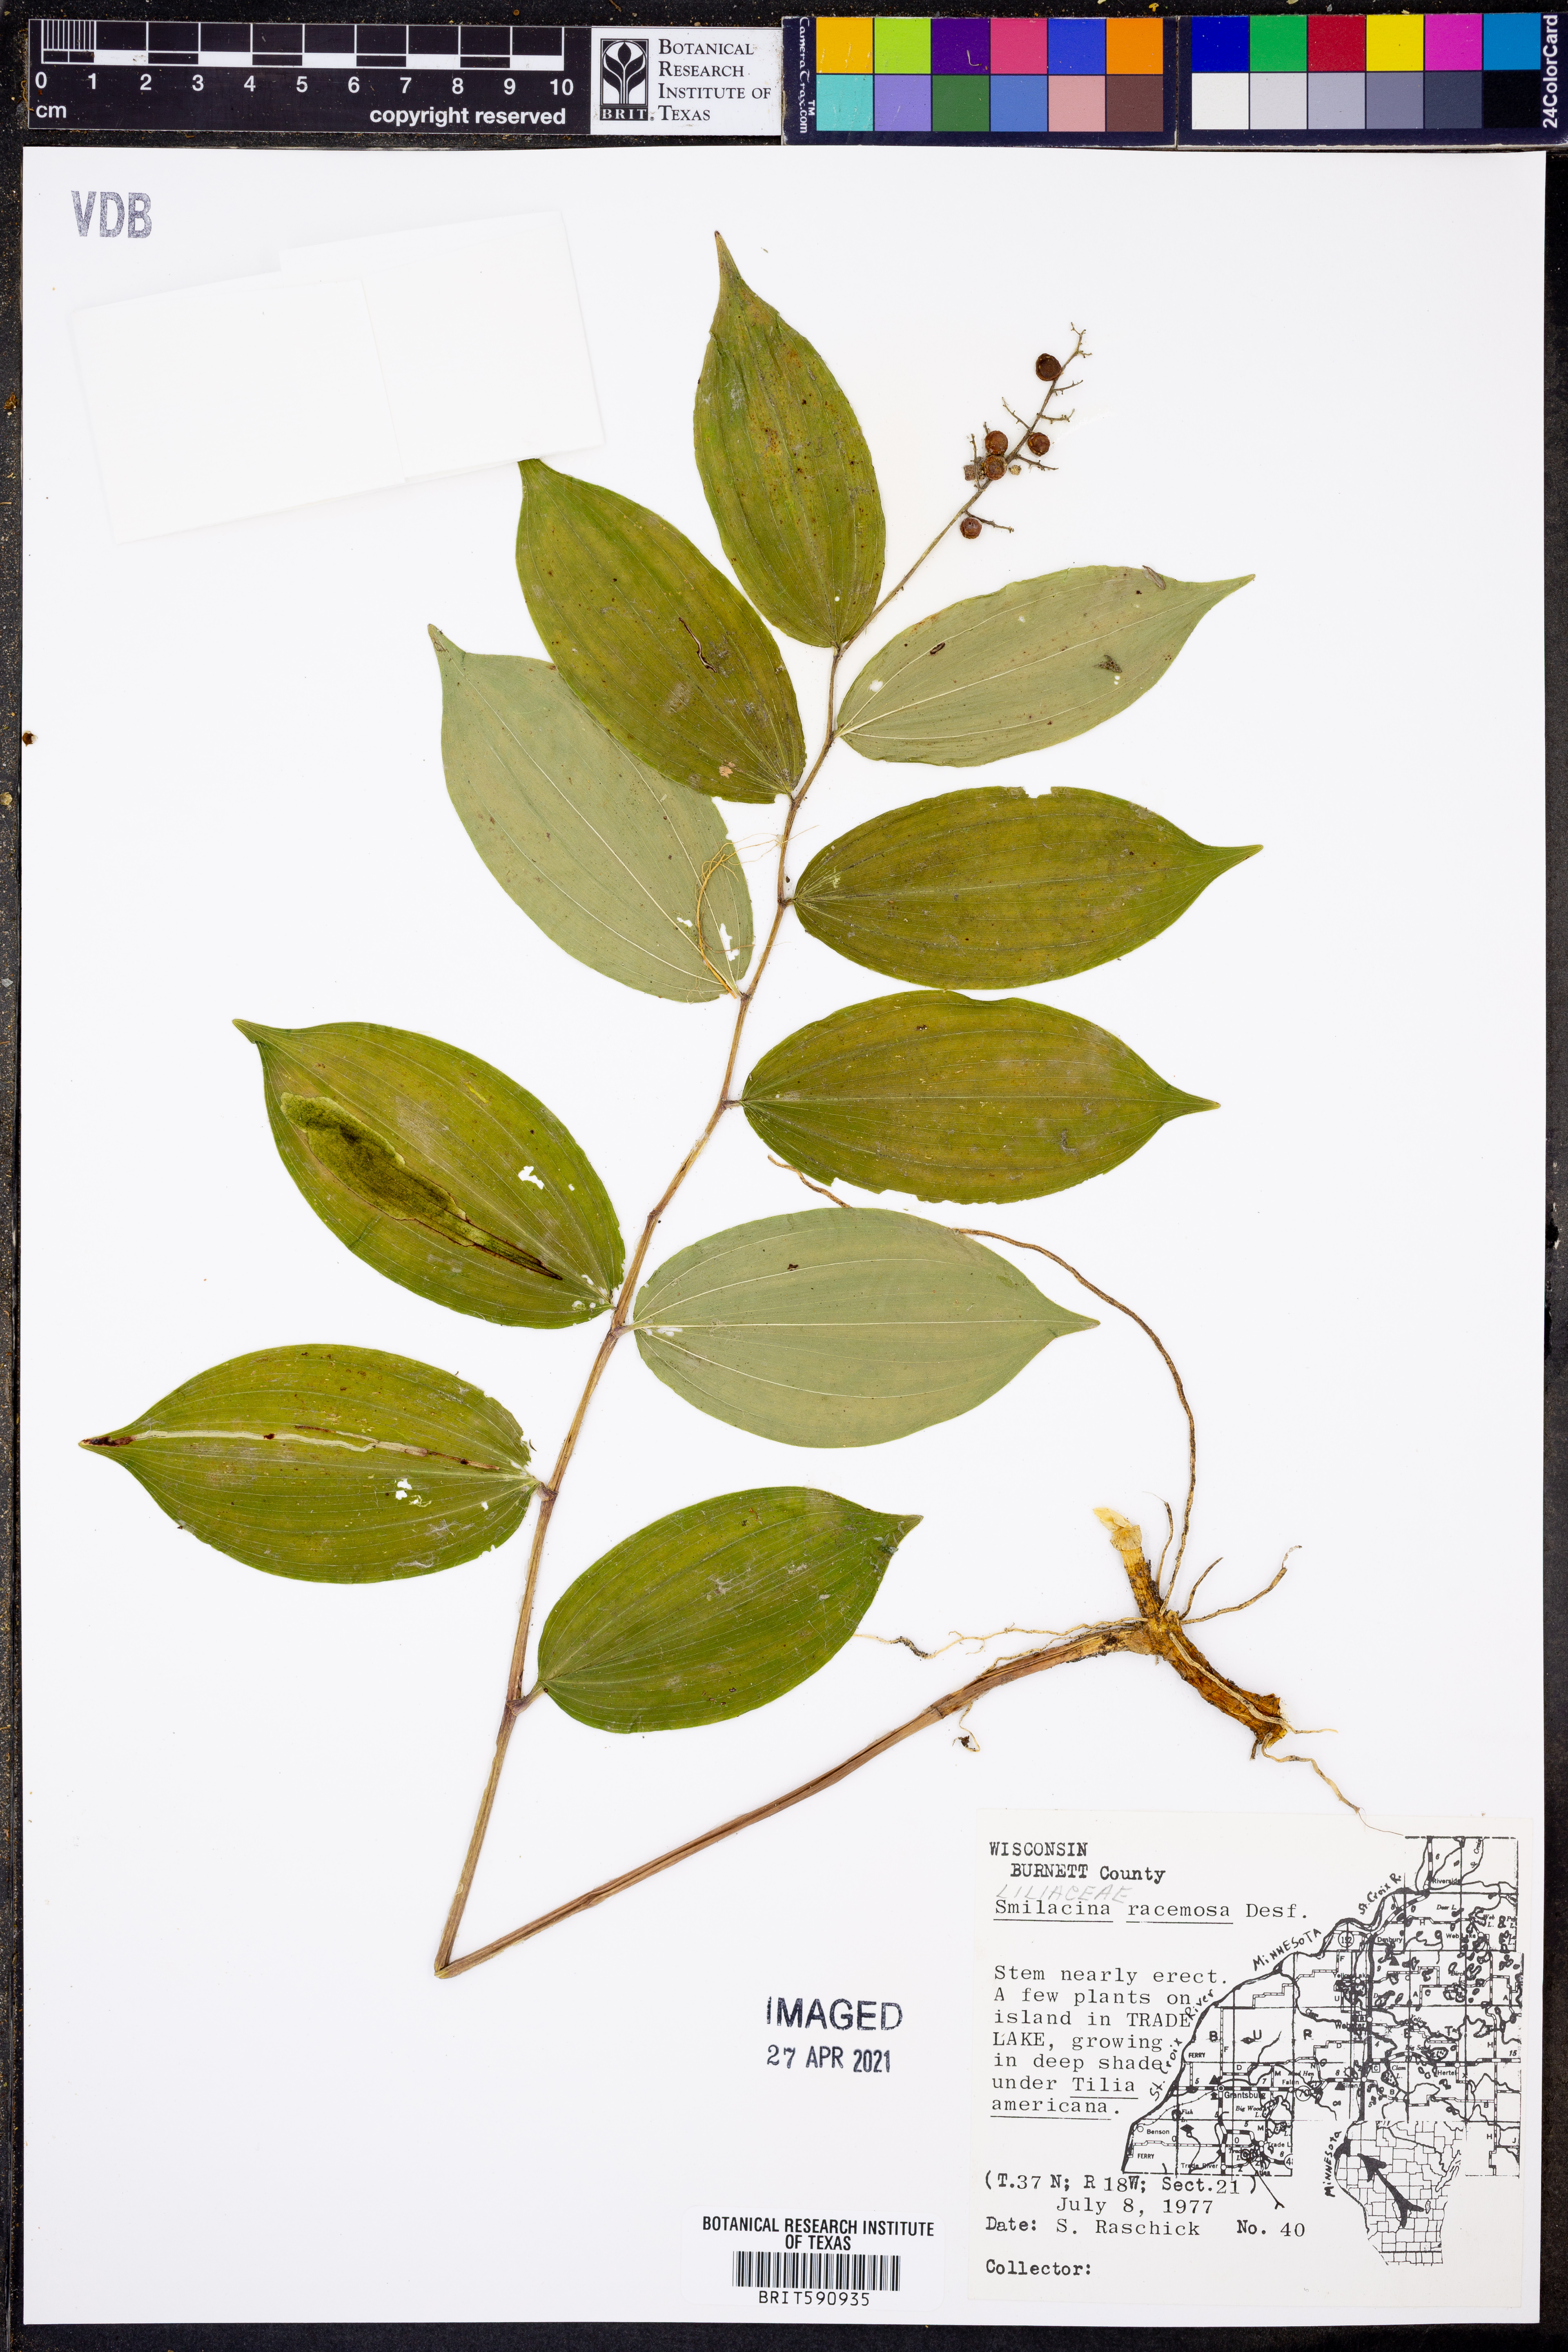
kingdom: Plantae
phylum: Tracheophyta
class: Liliopsida
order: Asparagales
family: Asparagaceae
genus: Maianthemum
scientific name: Maianthemum racemosum
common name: False spikenard
